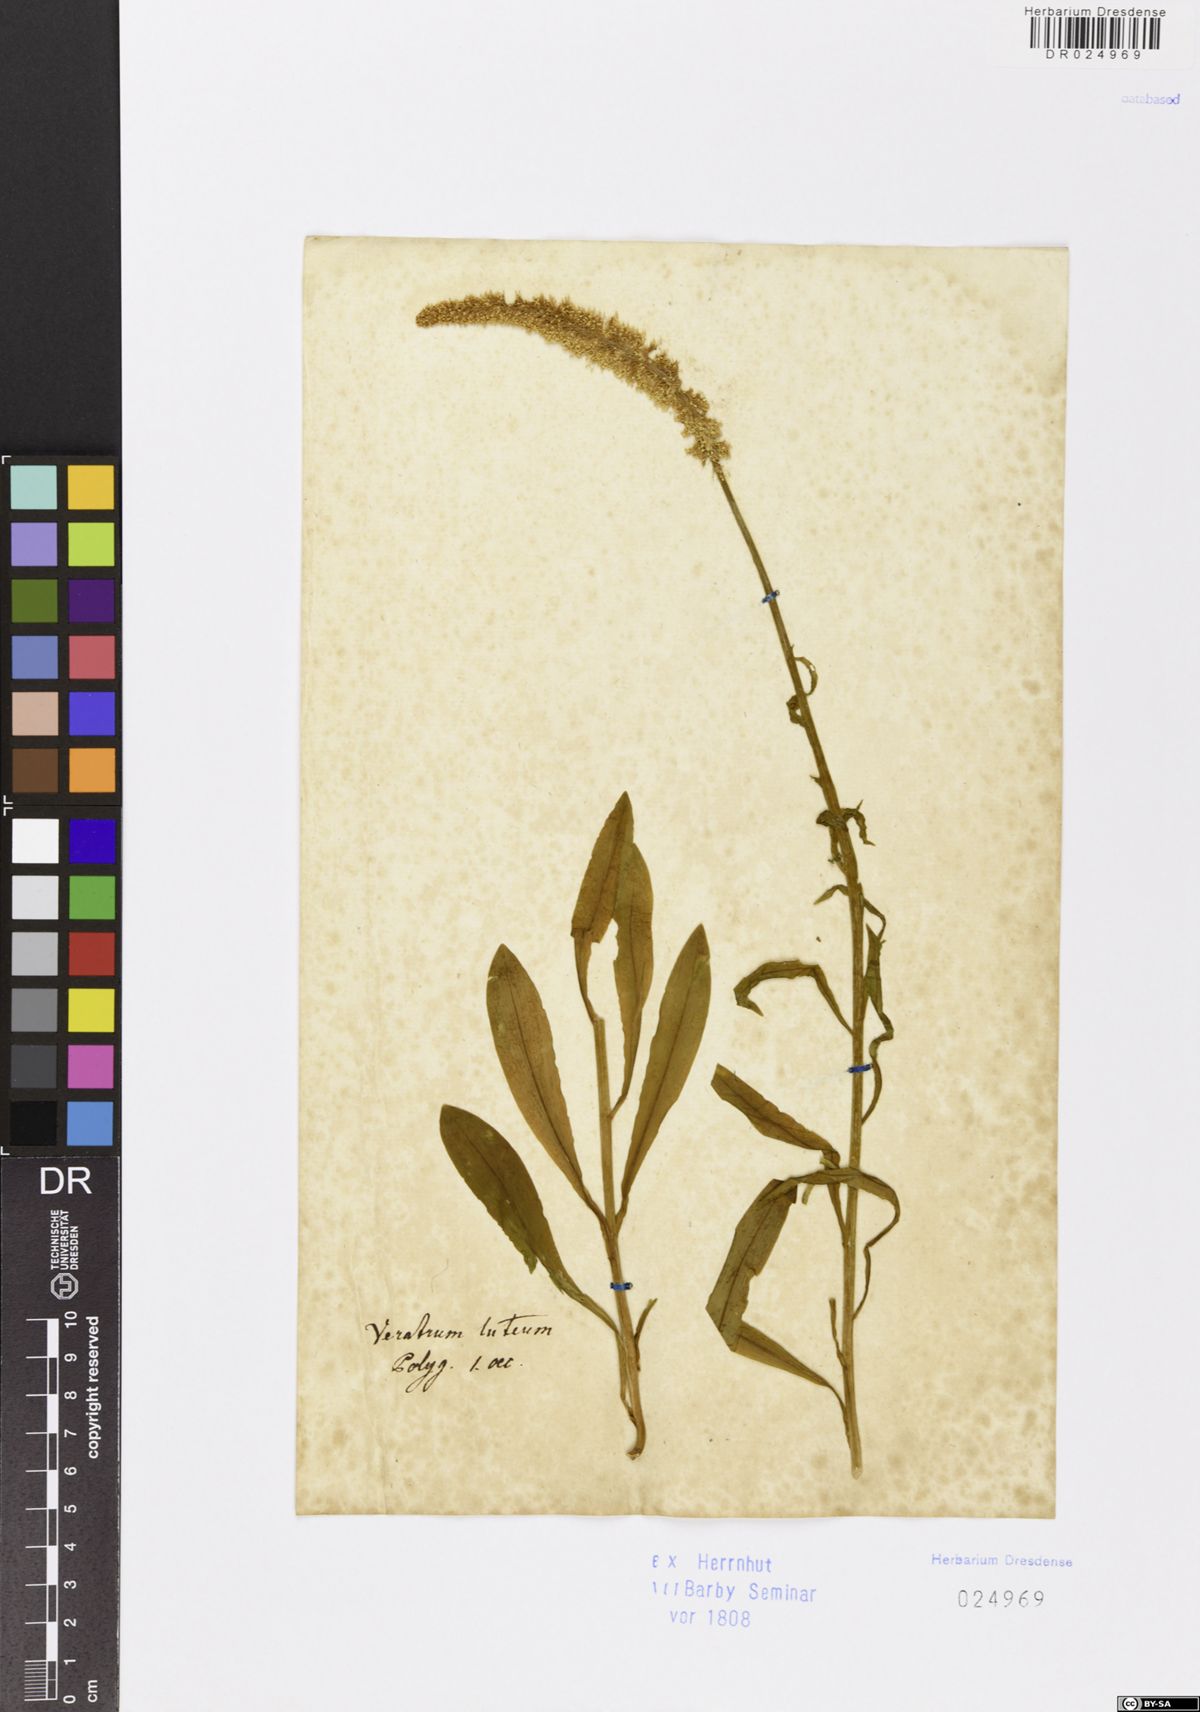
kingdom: Plantae
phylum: Tracheophyta
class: Liliopsida
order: Liliales
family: Melanthiaceae
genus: Chamaelirium
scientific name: Chamaelirium luteum
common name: Fairy-wand
